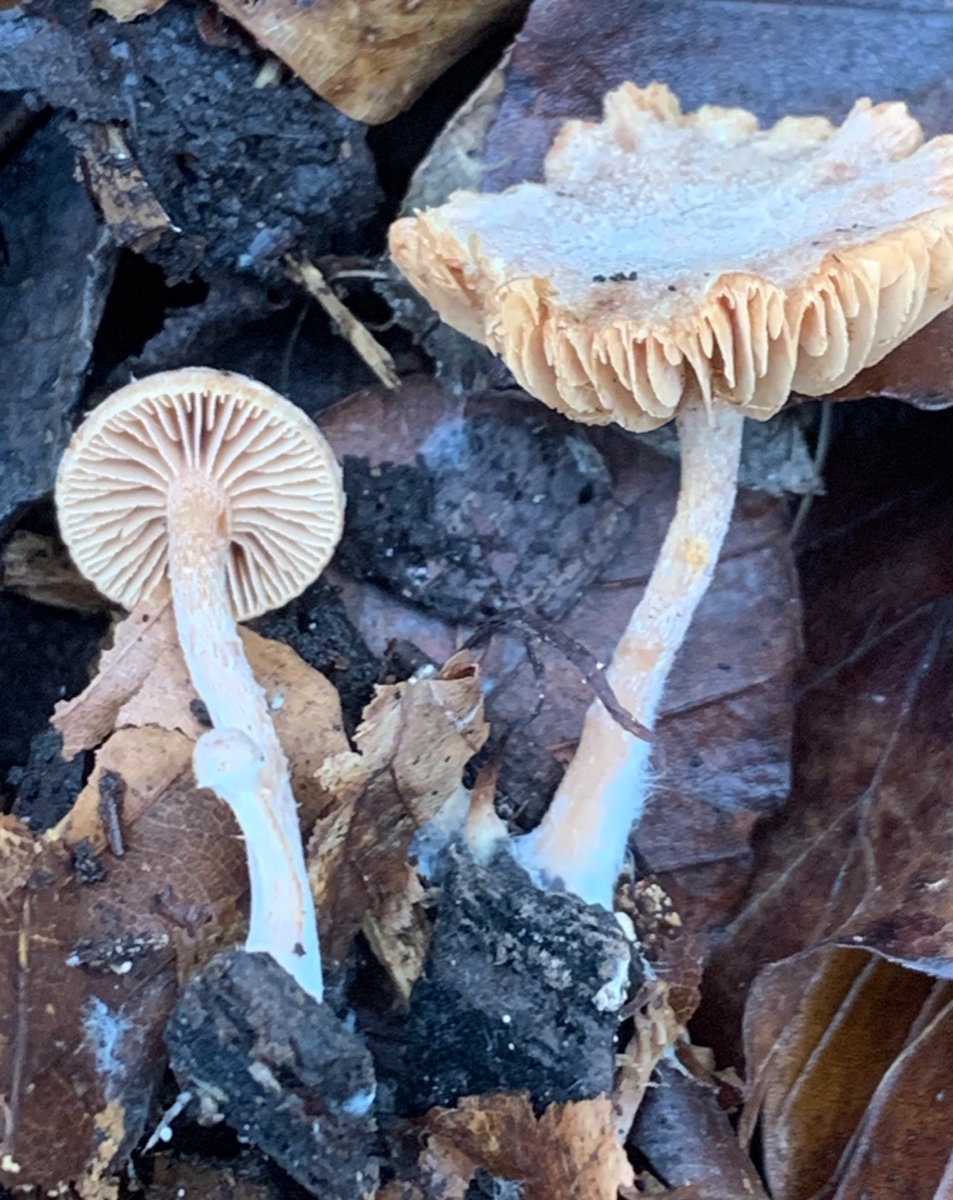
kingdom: Fungi
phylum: Basidiomycota
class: Agaricomycetes
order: Agaricales
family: Tubariaceae
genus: Tubaria
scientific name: Tubaria furfuracea
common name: kliddet fnughat
